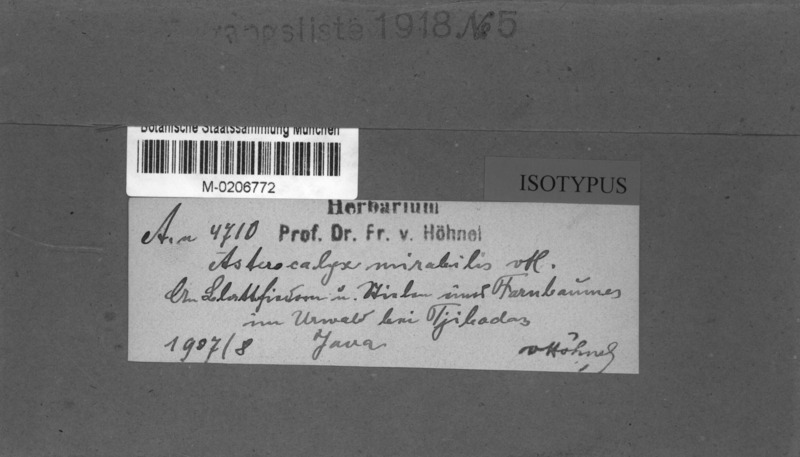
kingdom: Fungi
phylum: Ascomycota
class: Leotiomycetes
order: Helotiales
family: Sclerotiniaceae
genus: Asterocalycella
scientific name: Asterocalycella mirabilis
